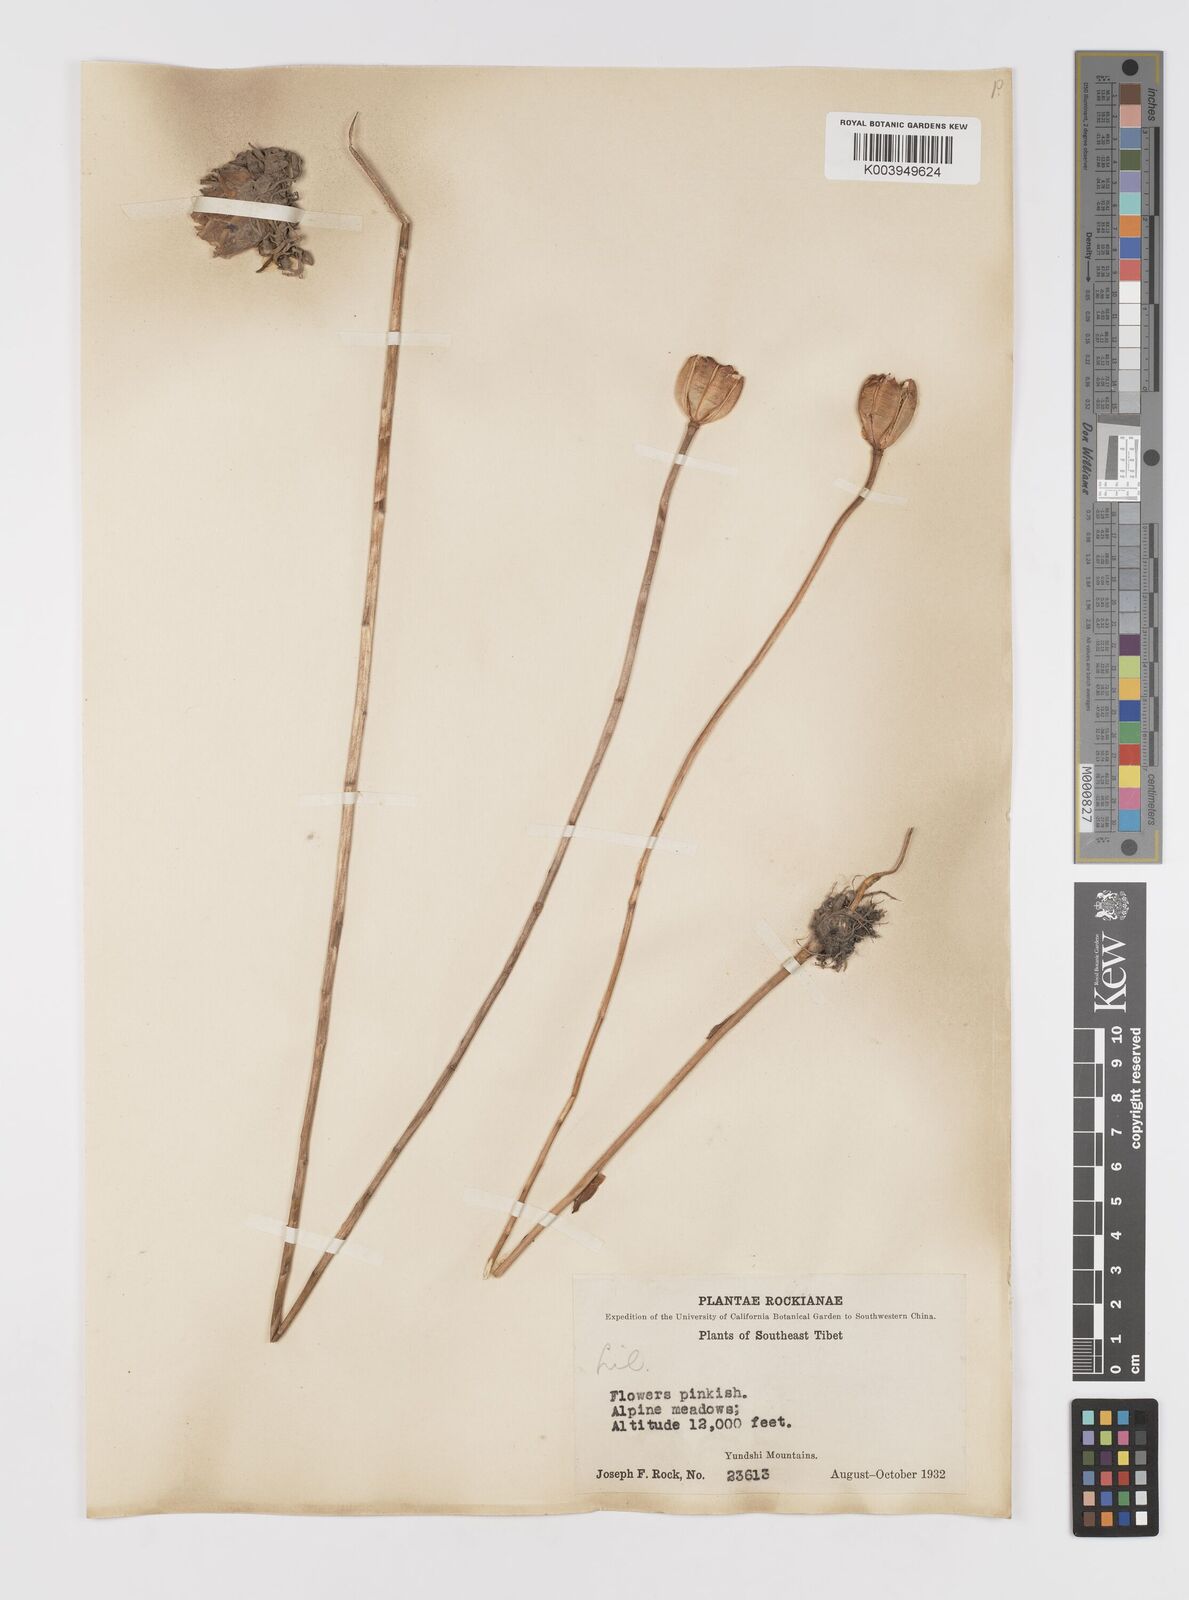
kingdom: Plantae
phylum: Tracheophyta
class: Liliopsida
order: Liliales
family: Liliaceae
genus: Lilium
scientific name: Lilium
